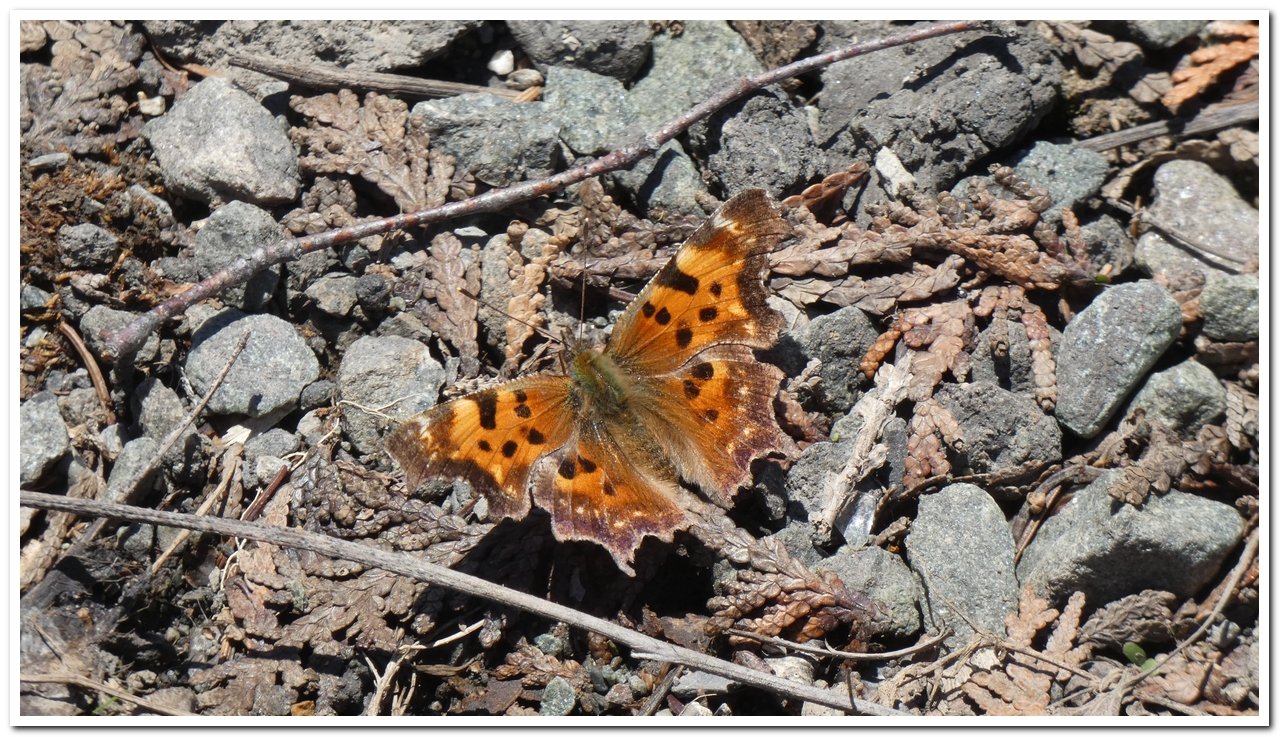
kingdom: Animalia
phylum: Arthropoda
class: Insecta
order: Lepidoptera
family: Nymphalidae
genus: Polygonia
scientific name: Polygonia faunus
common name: Green Comma
